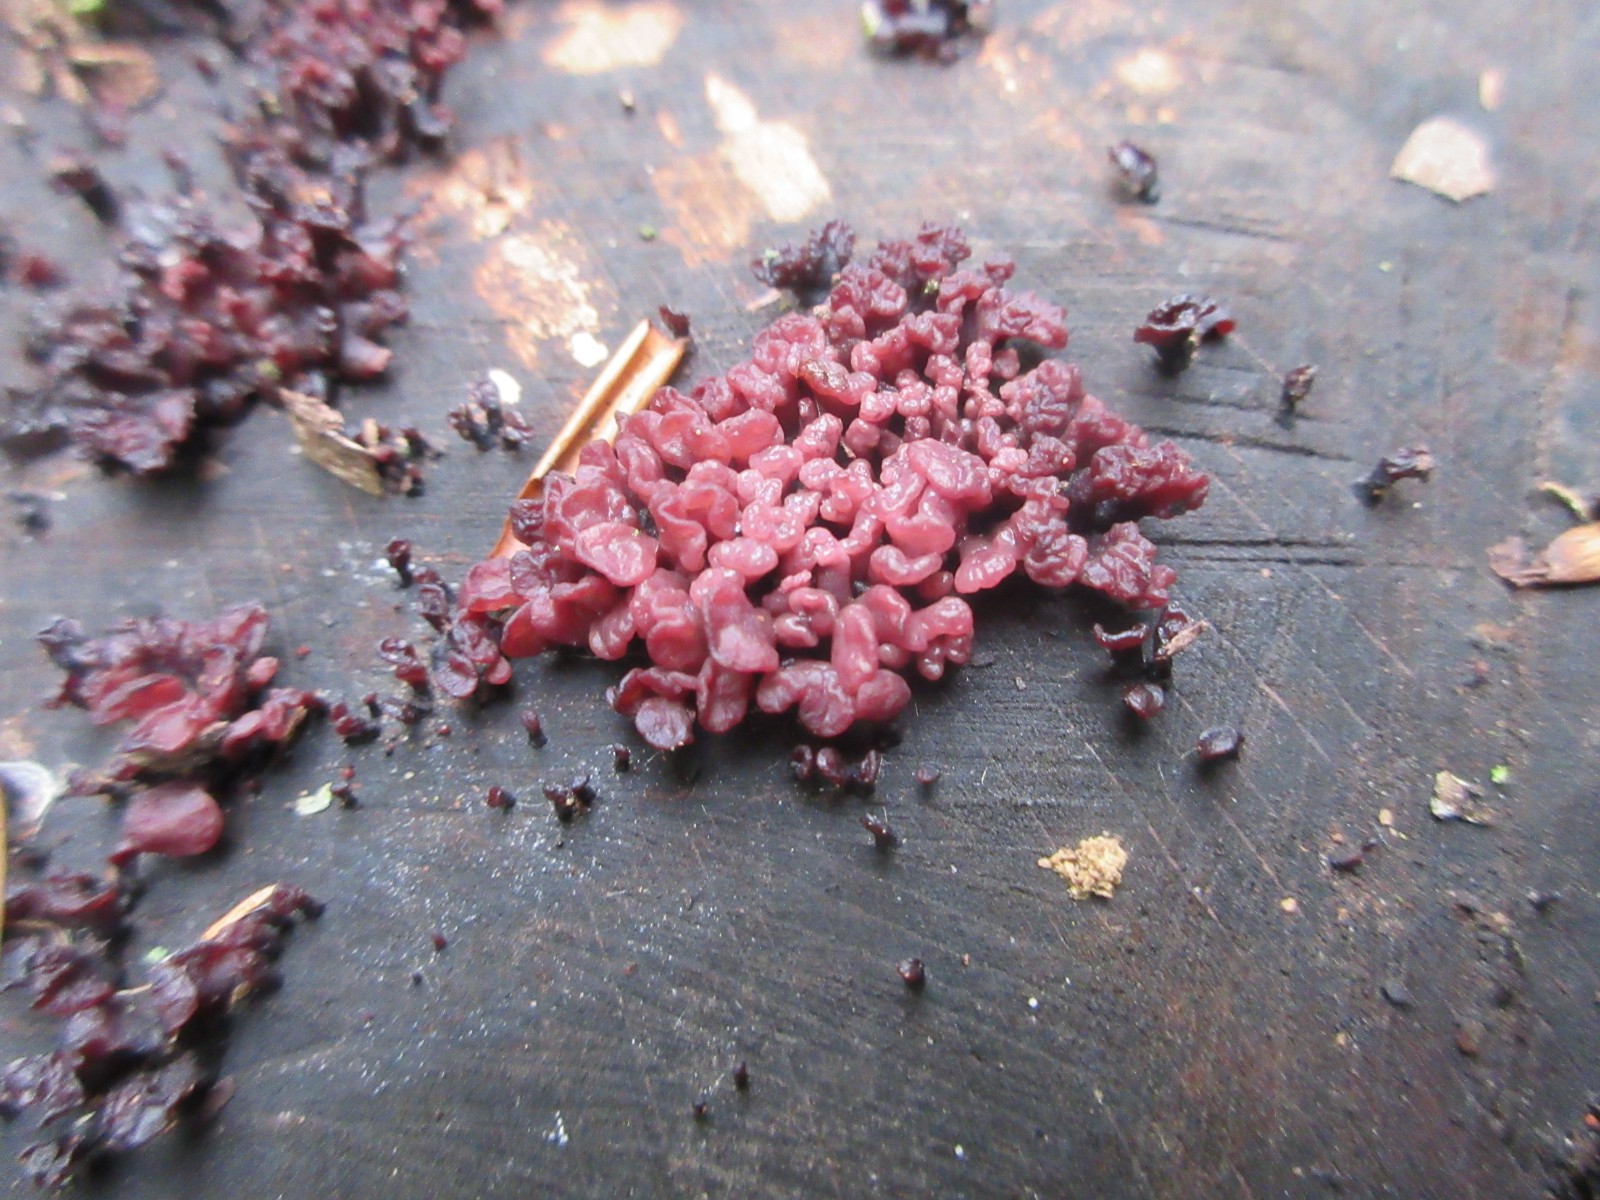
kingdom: Fungi
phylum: Ascomycota
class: Leotiomycetes
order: Helotiales
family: Gelatinodiscaceae
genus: Ascocoryne
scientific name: Ascocoryne sarcoides
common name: rødlilla sejskive
